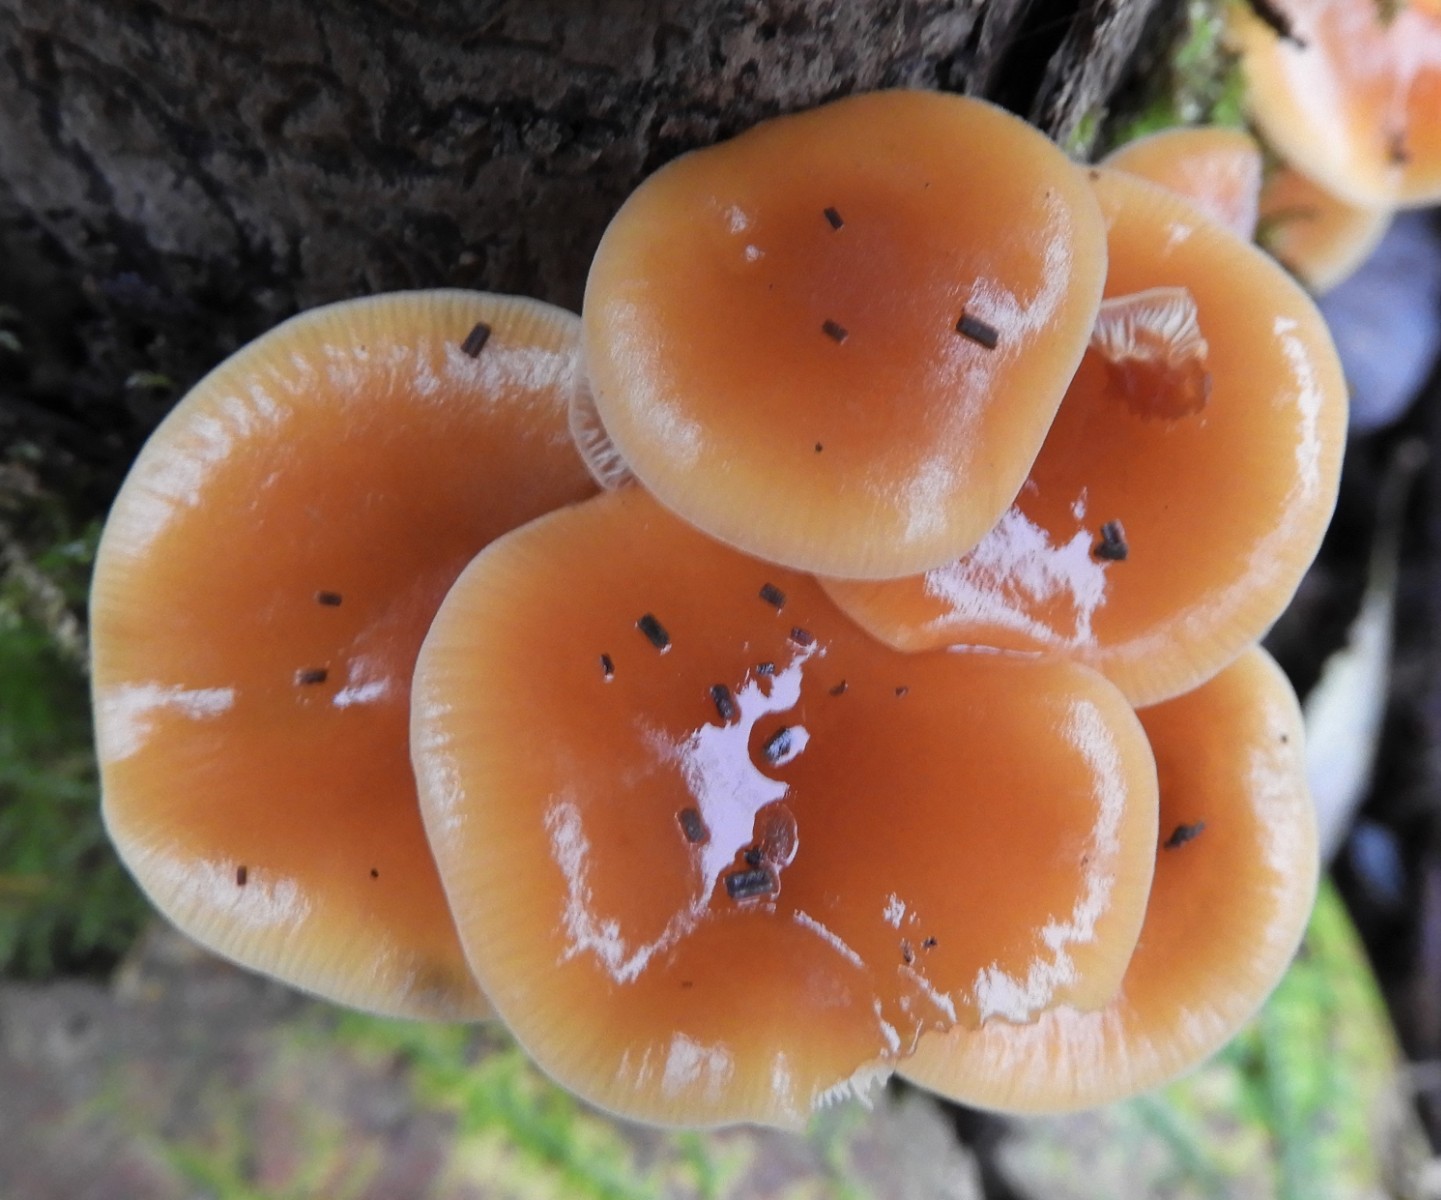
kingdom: Fungi
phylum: Basidiomycota
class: Agaricomycetes
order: Agaricales
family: Physalacriaceae
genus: Flammulina
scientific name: Flammulina velutipes
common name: gul fløjlsfod
